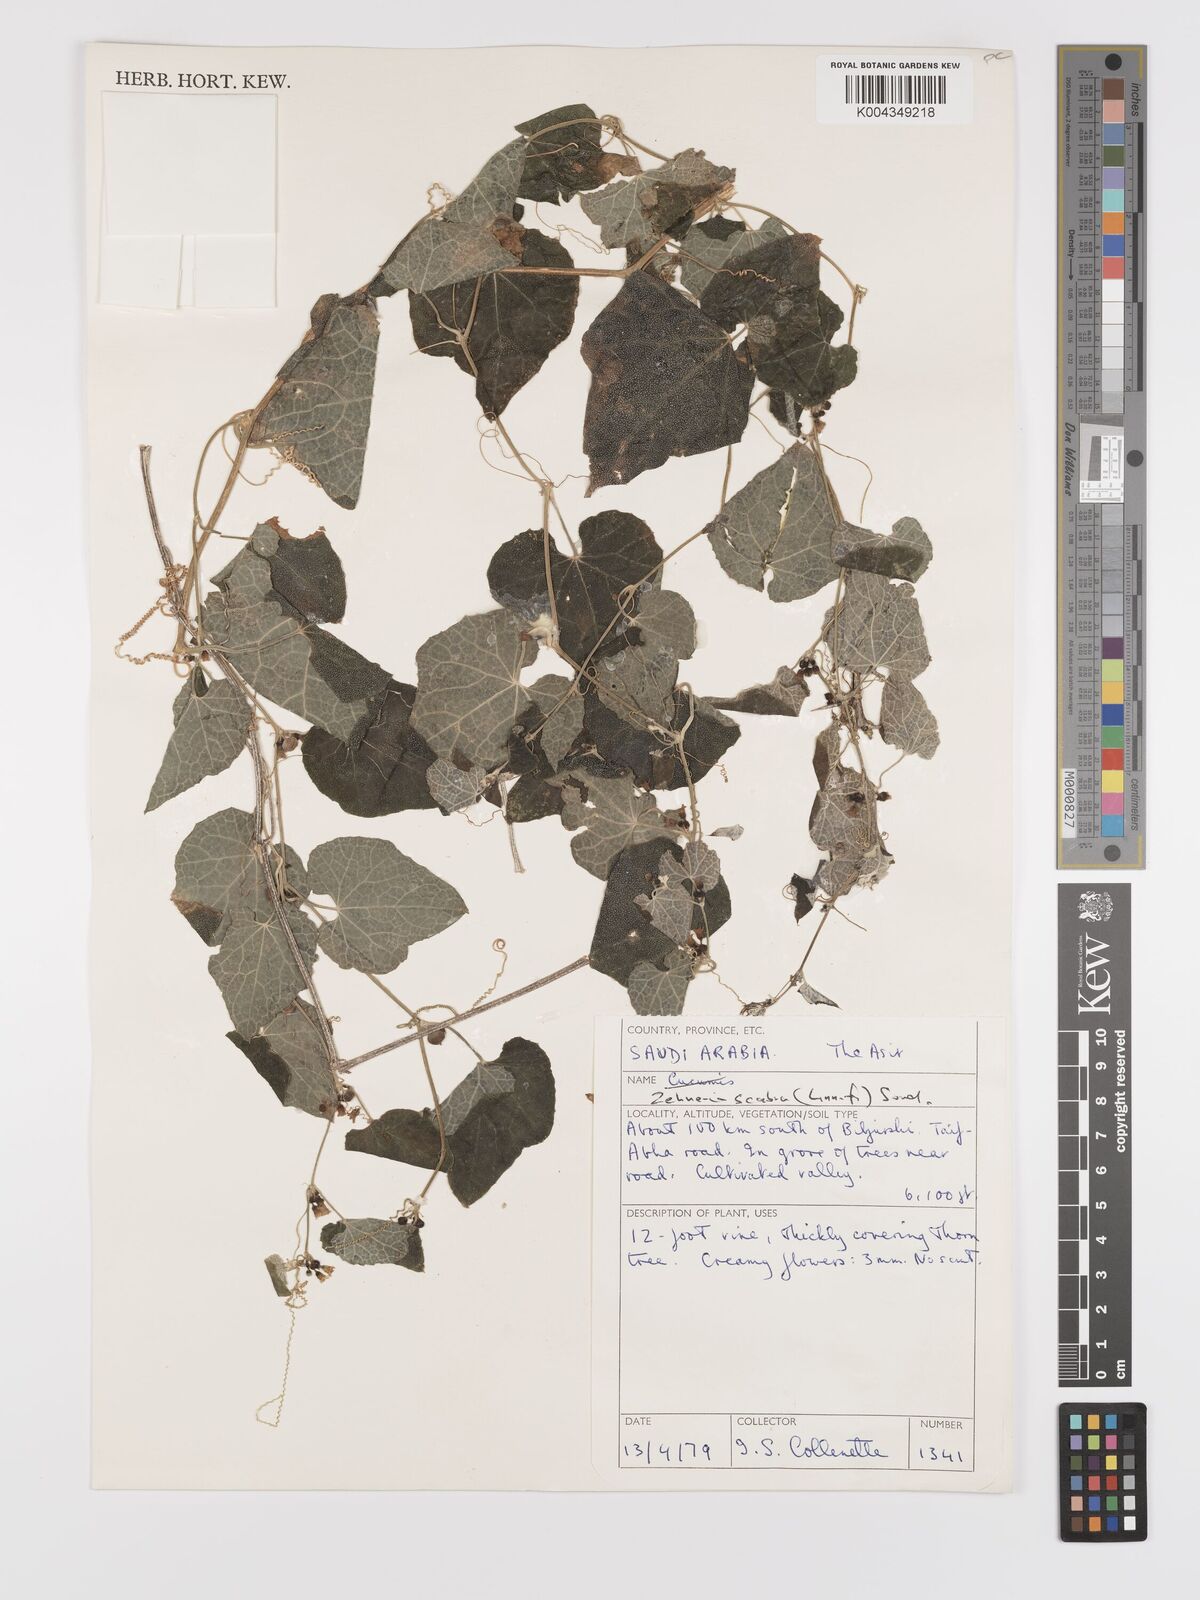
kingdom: Plantae
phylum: Tracheophyta
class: Magnoliopsida
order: Cucurbitales
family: Cucurbitaceae
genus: Zehneria
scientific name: Zehneria scabra
